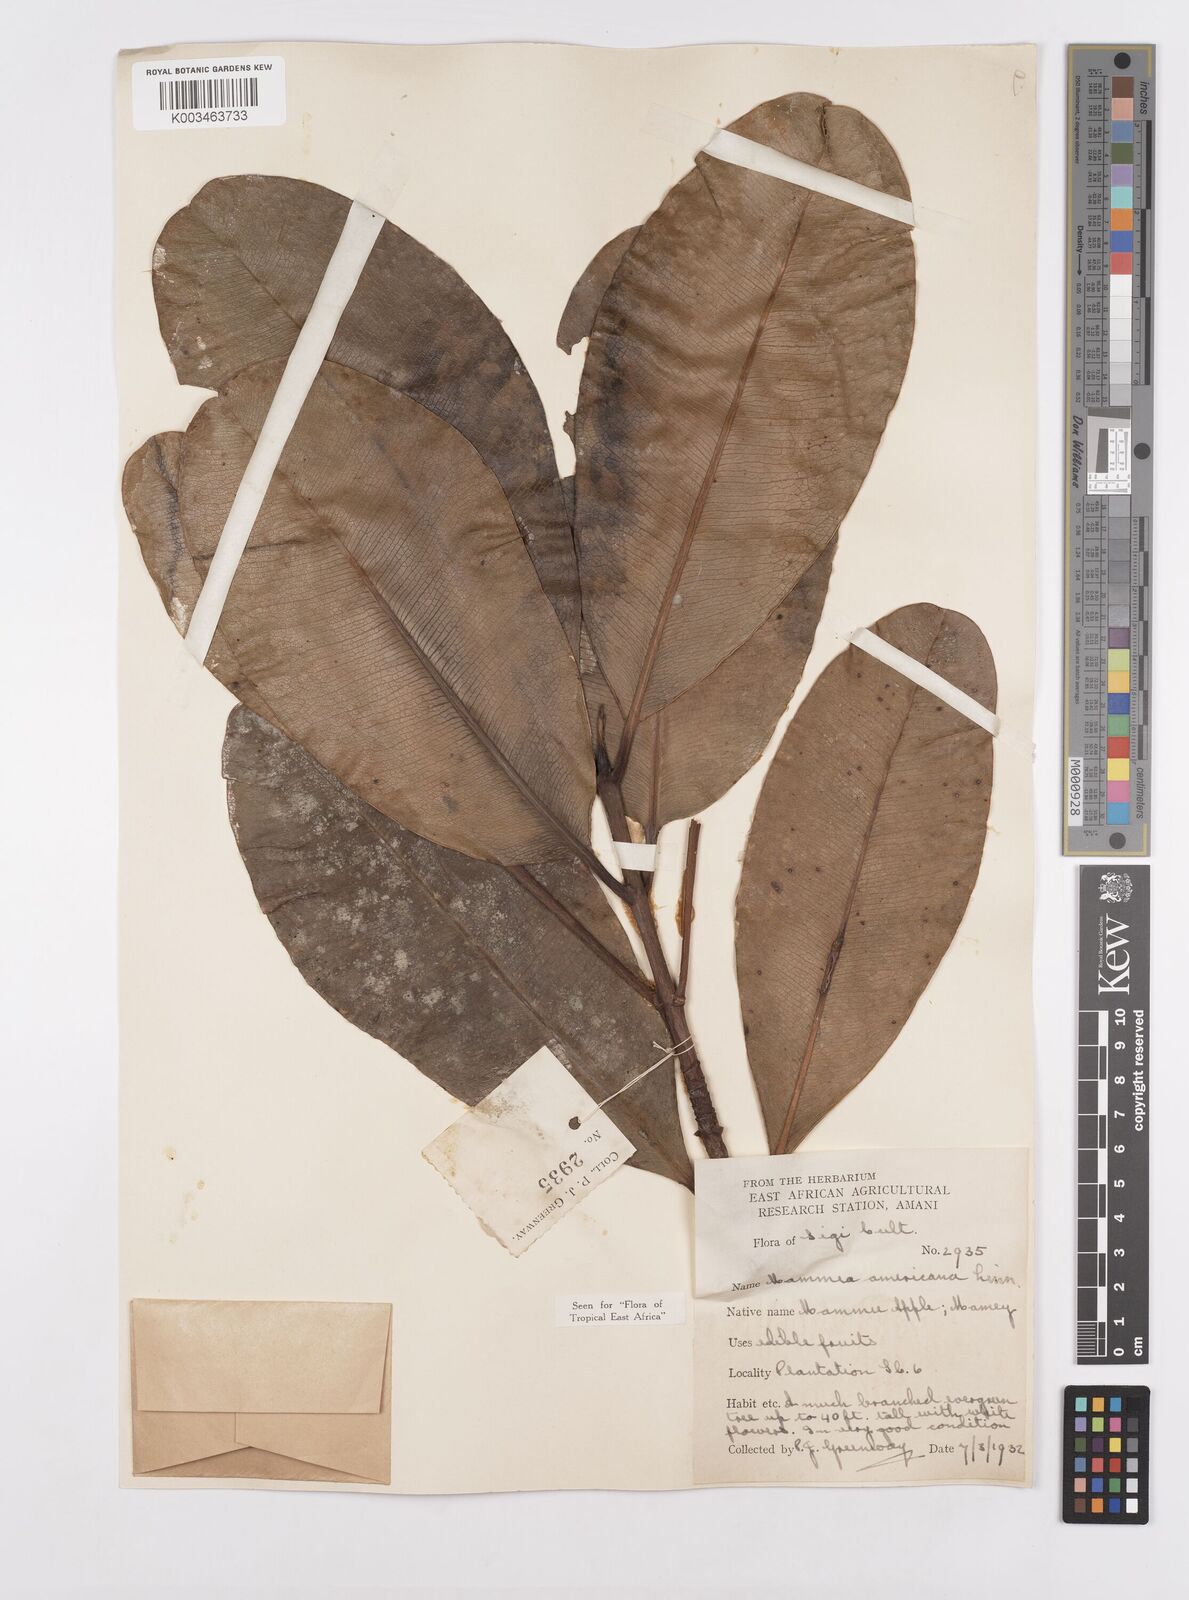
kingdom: Plantae
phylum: Tracheophyta
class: Magnoliopsida
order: Malpighiales
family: Calophyllaceae
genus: Mammea
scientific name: Mammea africana
